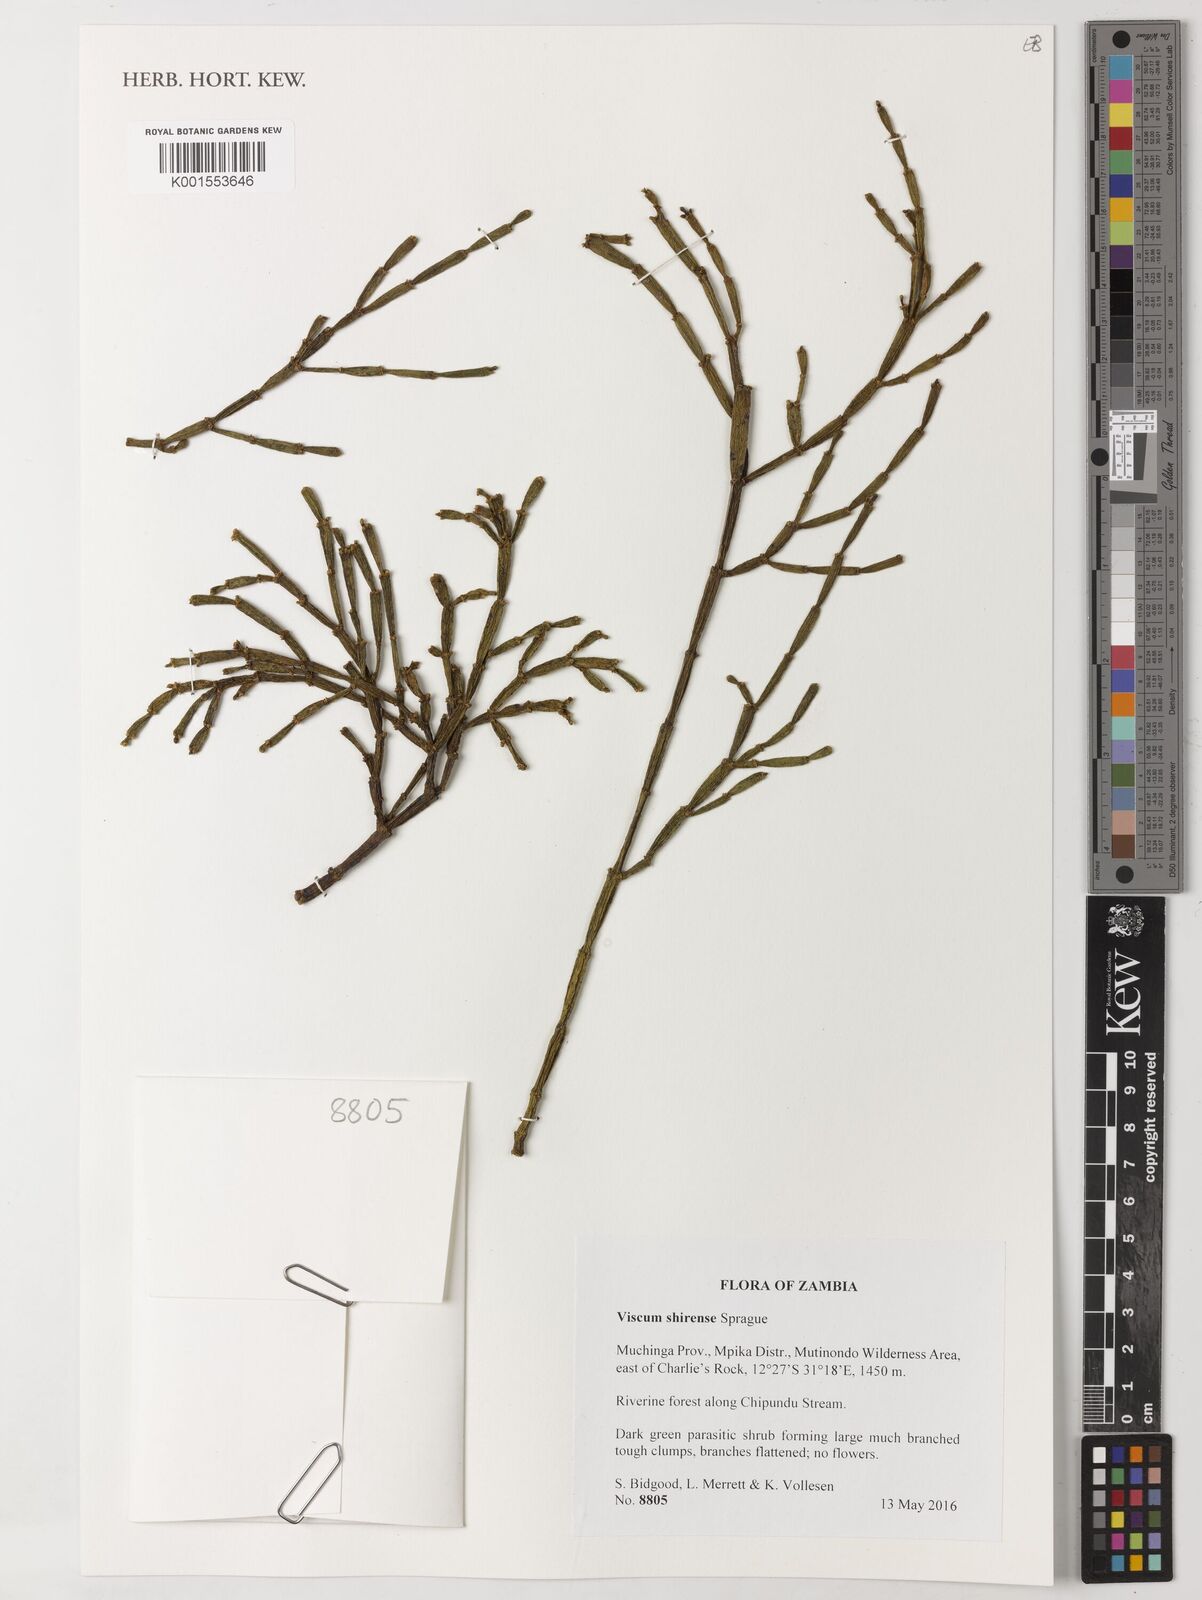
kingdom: Plantae
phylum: Tracheophyta
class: Magnoliopsida
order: Santalales
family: Viscaceae
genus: Viscum
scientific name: Viscum junodii
